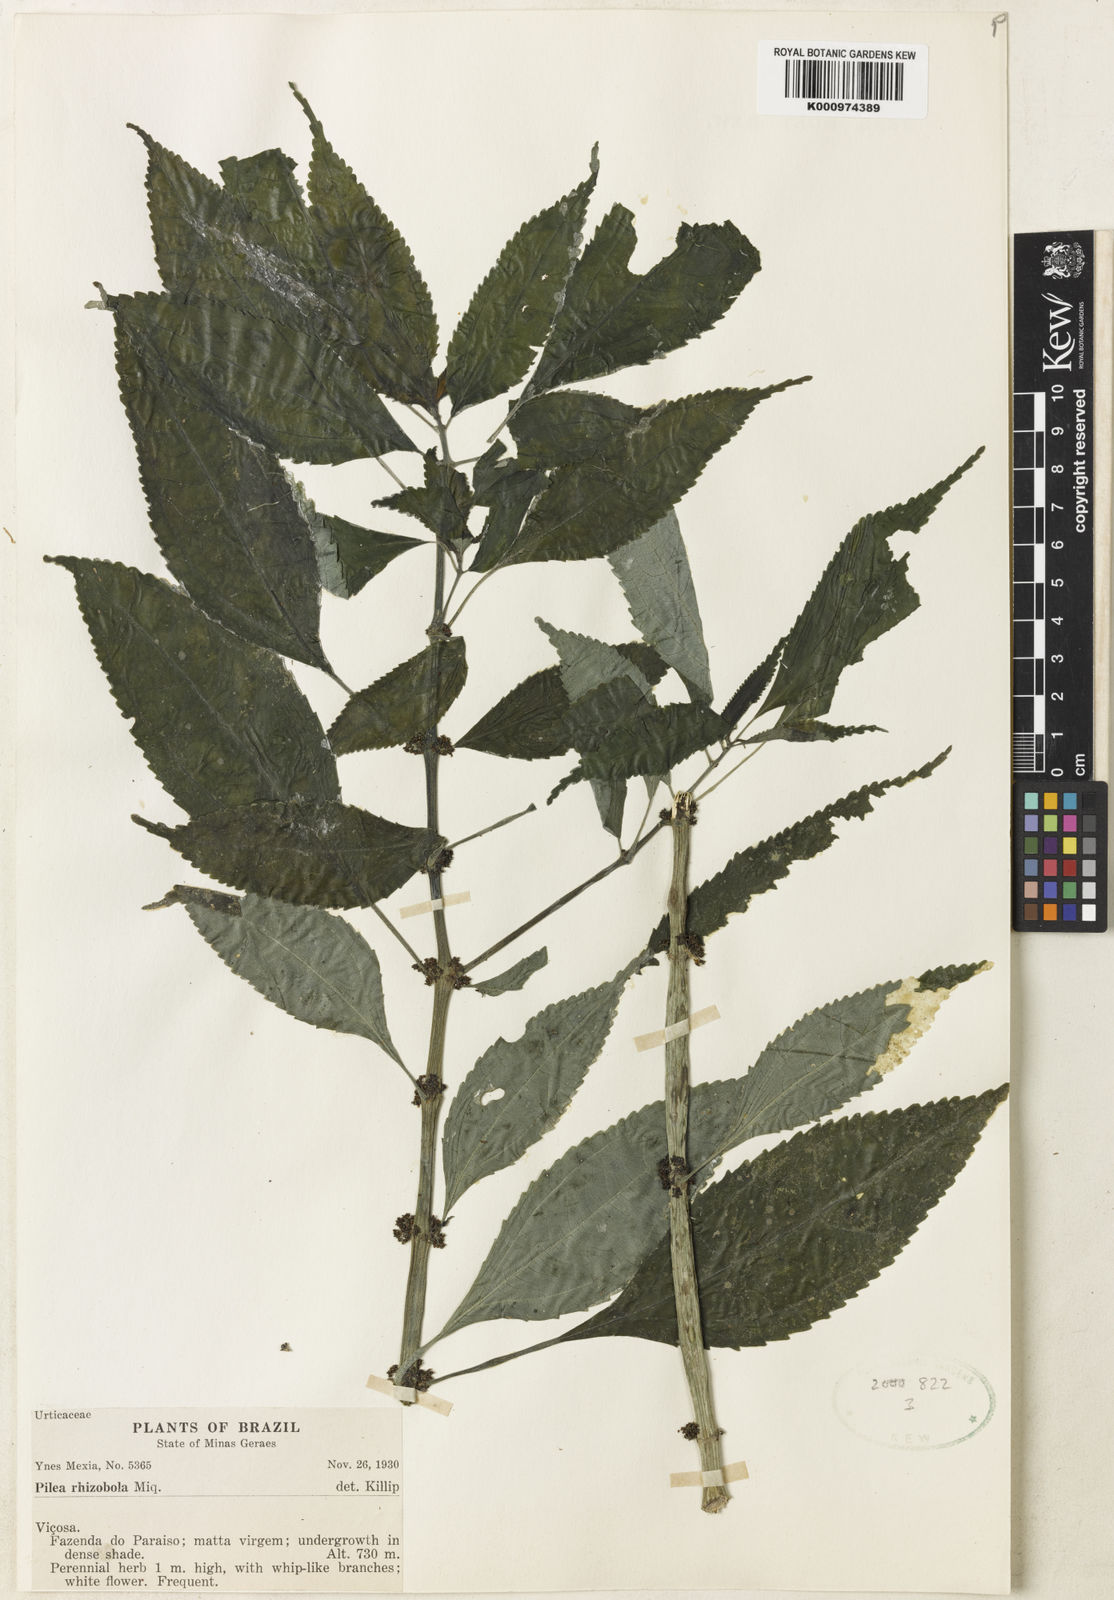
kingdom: Plantae
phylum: Tracheophyta
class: Magnoliopsida
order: Rosales
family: Urticaceae
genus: Pilea
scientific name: Pilea rhizobola
